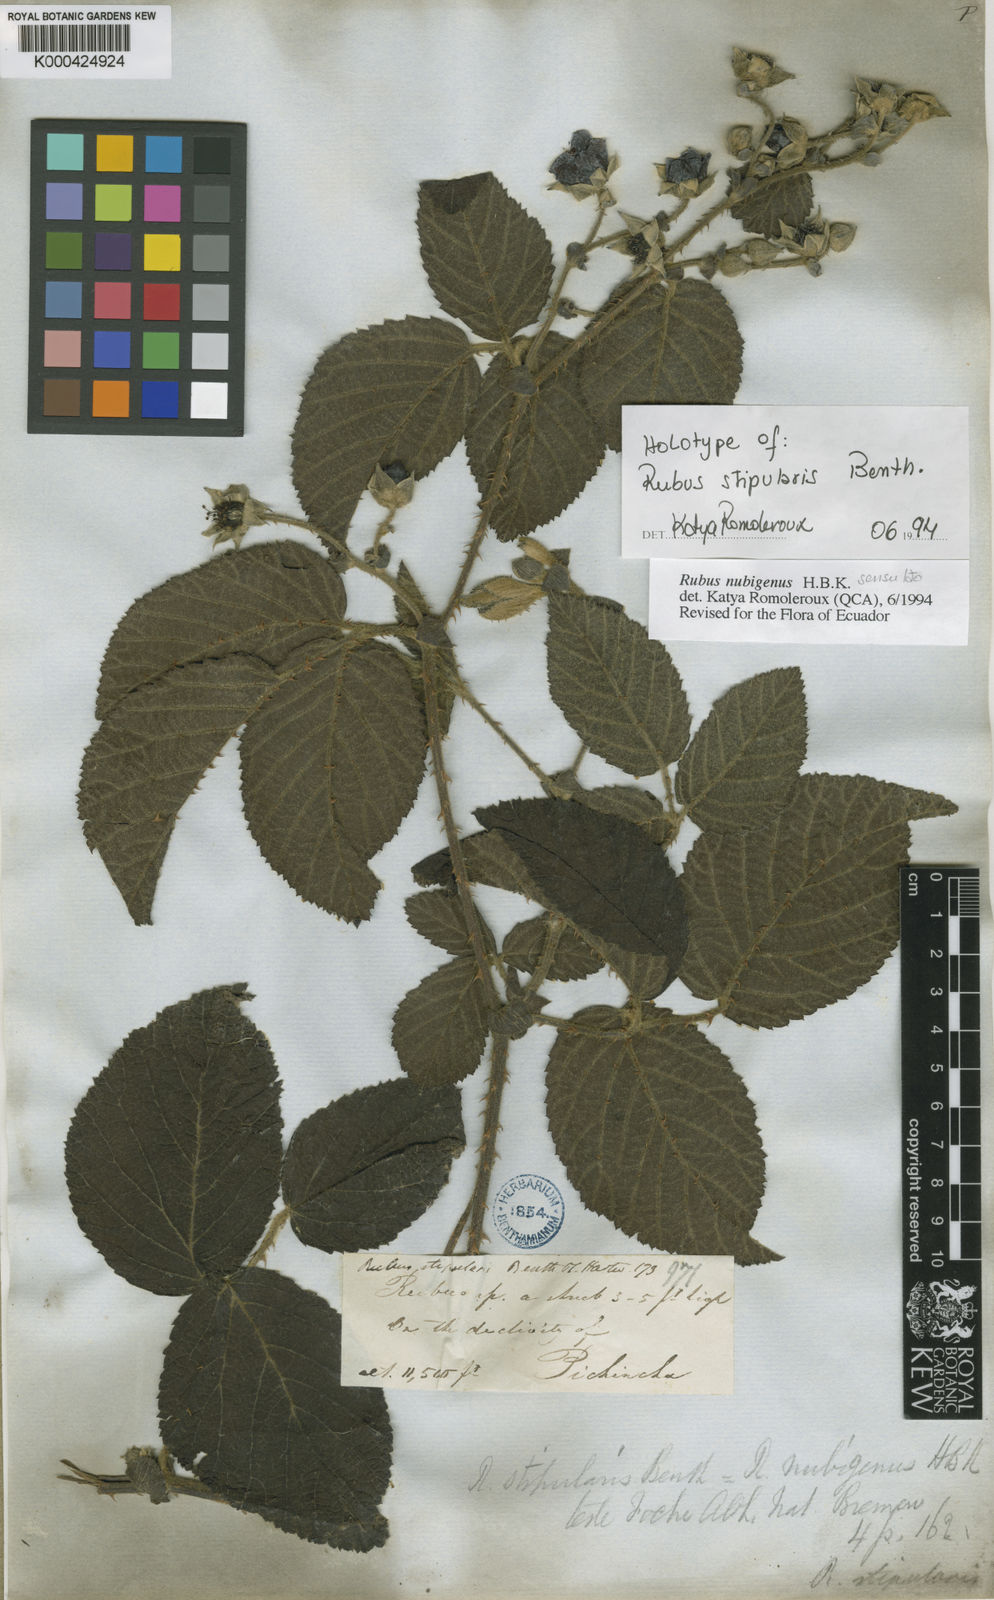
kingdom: Plantae
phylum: Tracheophyta
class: Magnoliopsida
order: Rosales
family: Rosaceae
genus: Rubus
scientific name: Rubus nubigenus
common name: Giant colombian blackberry
